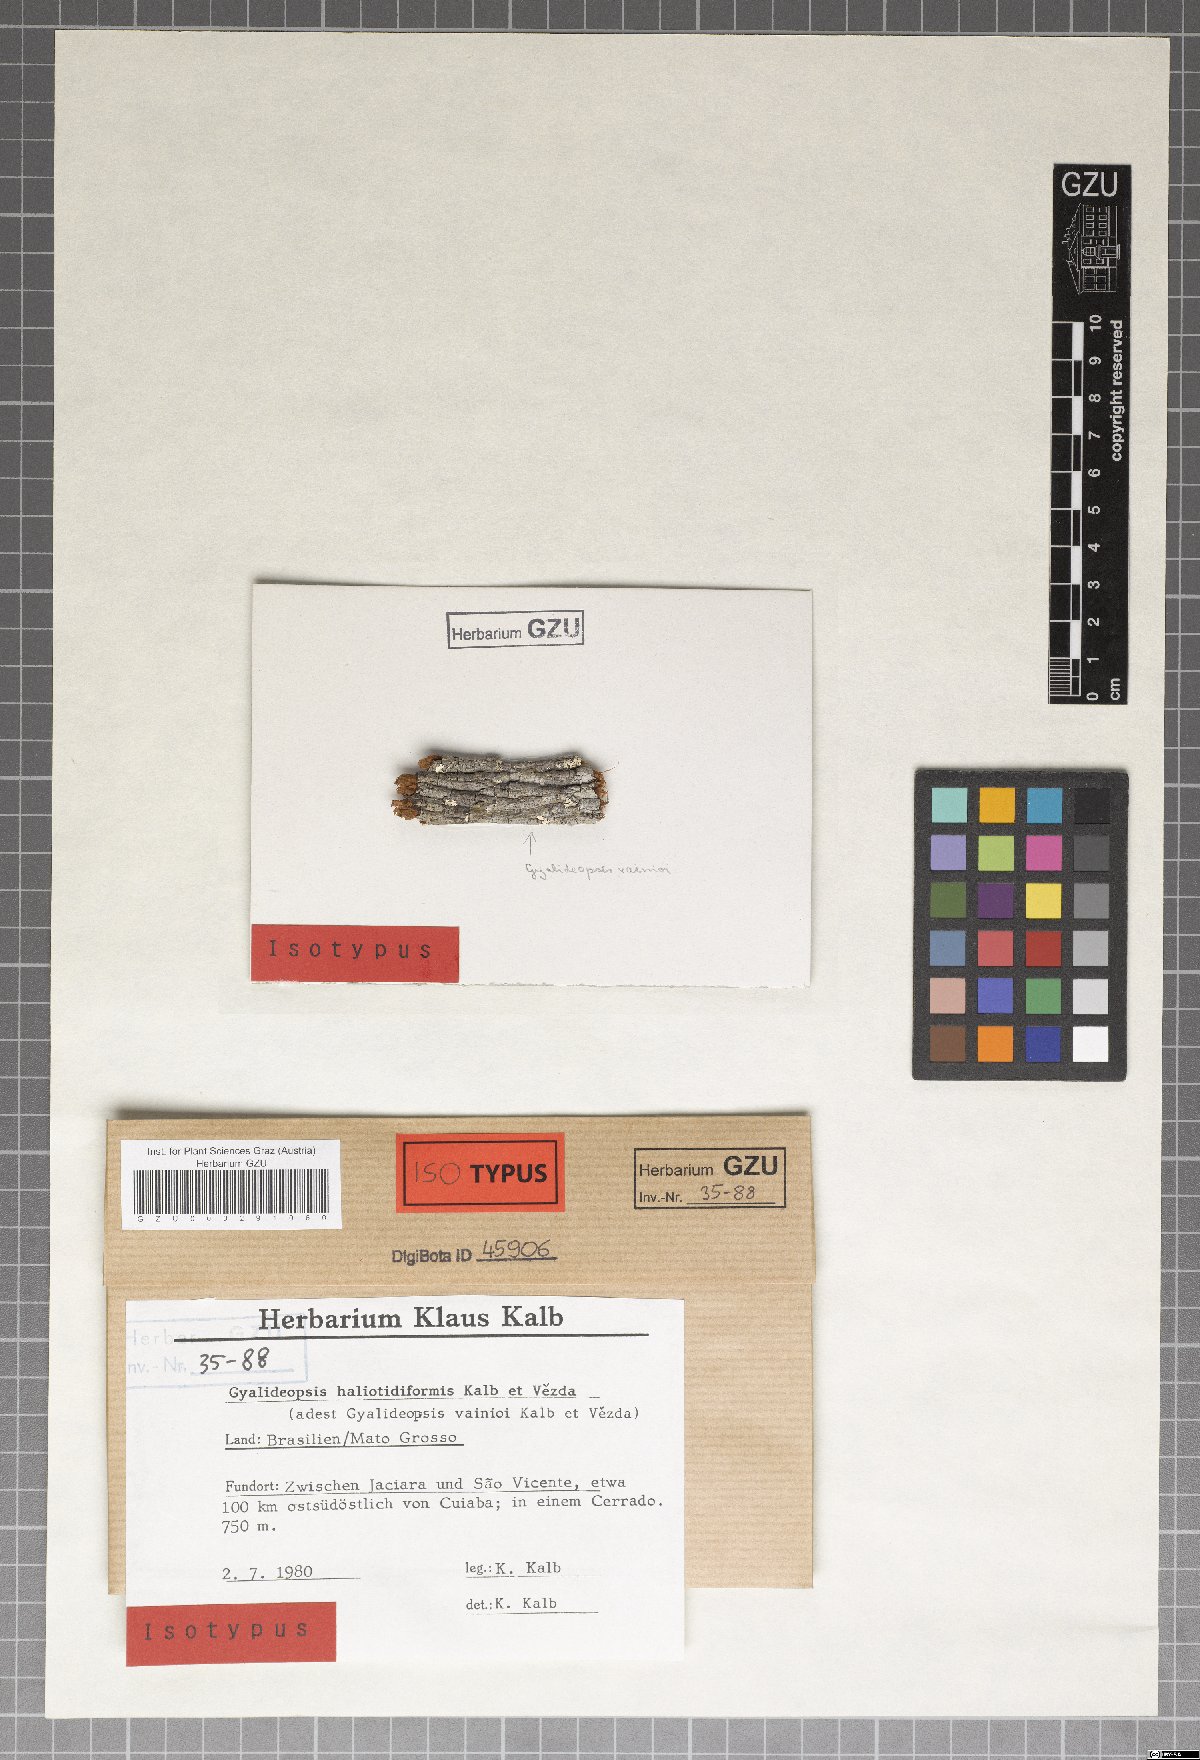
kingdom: Fungi
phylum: Ascomycota
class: Lecanoromycetes
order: Ostropales
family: Gomphillaceae
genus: Gyalideopsis
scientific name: Gyalideopsis haliotidiformis
